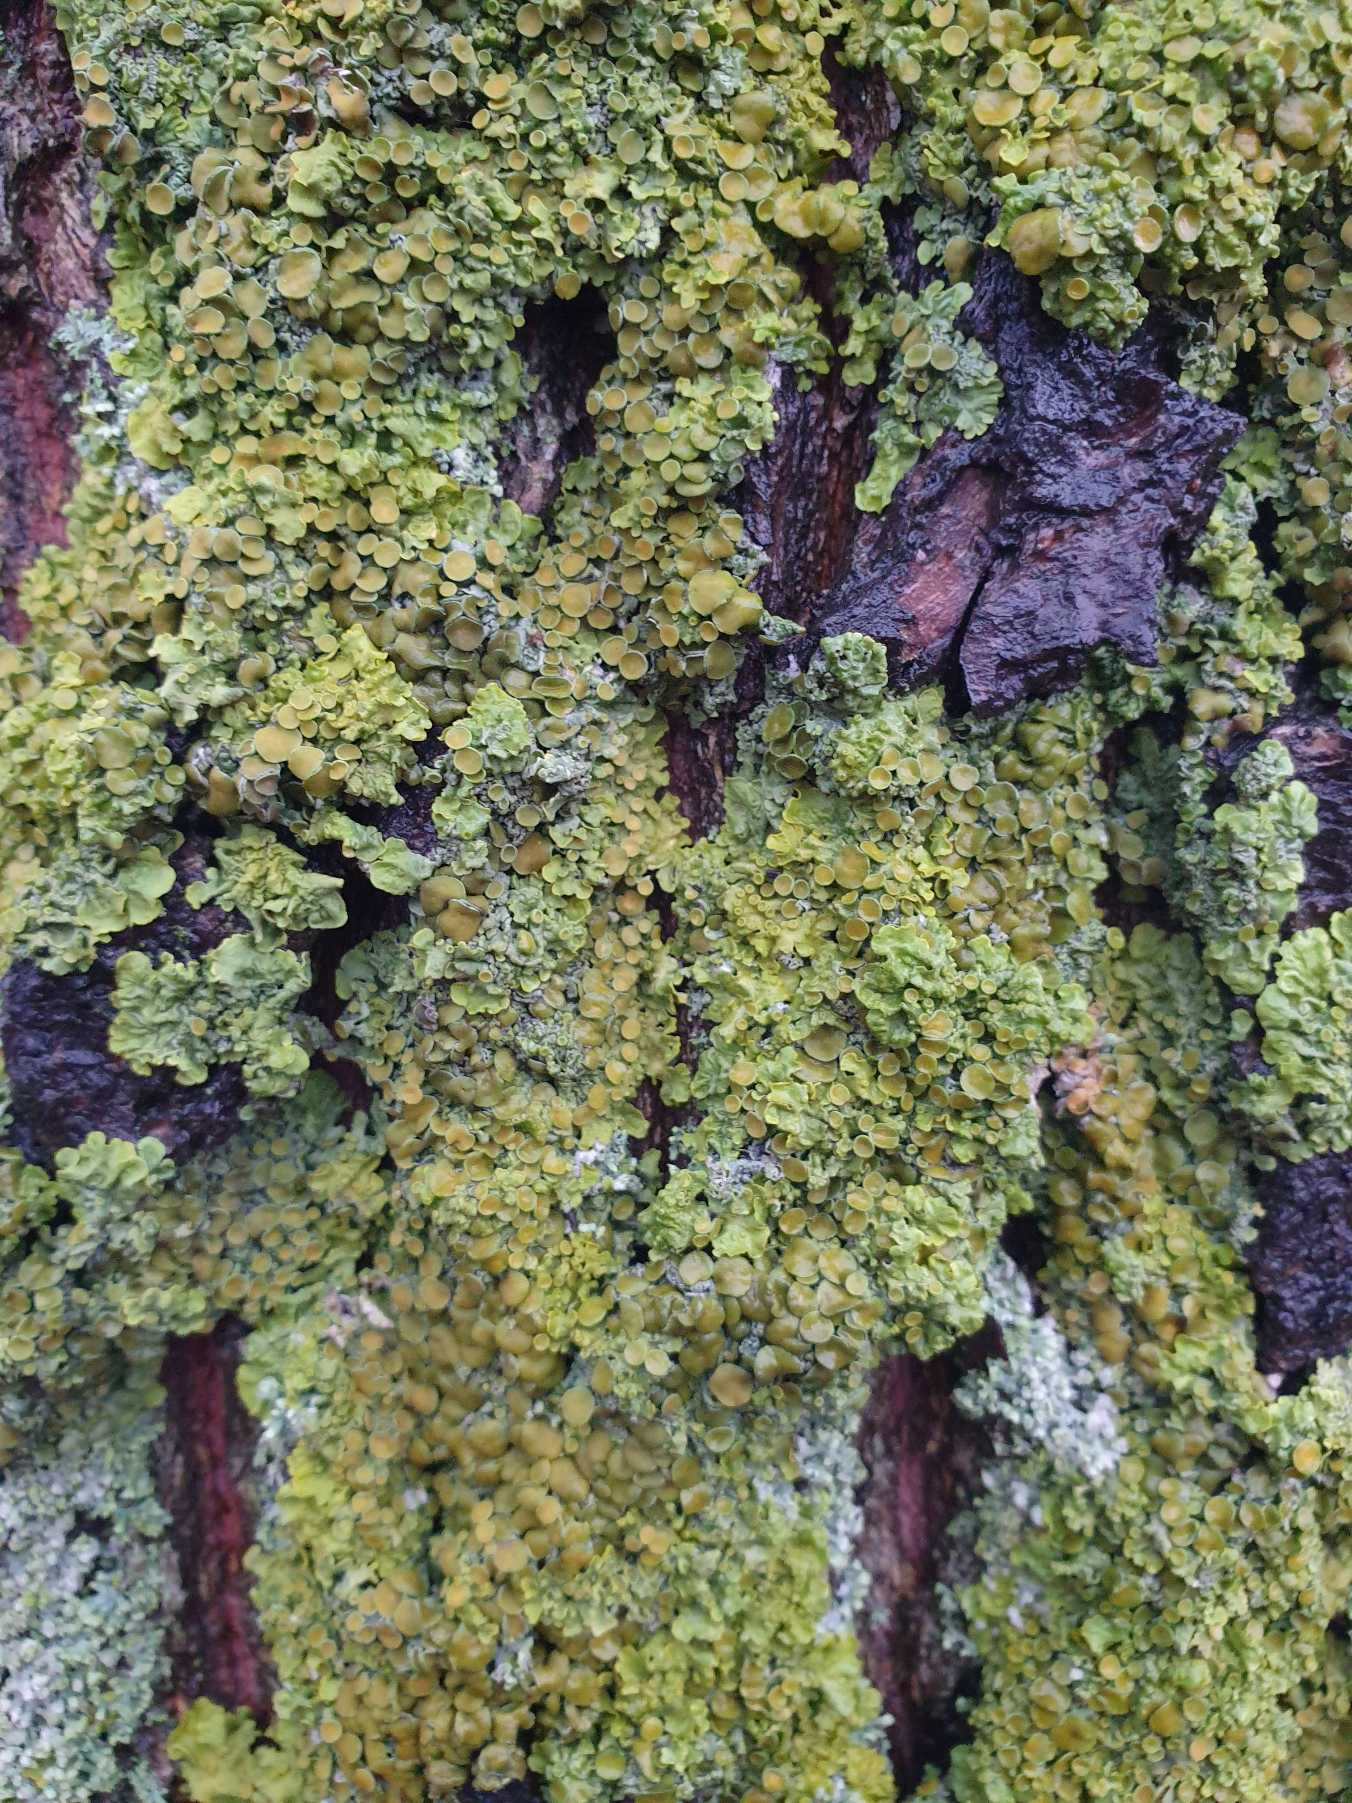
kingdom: Fungi
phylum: Ascomycota
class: Lecanoromycetes
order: Teloschistales
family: Teloschistaceae
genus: Xanthoria
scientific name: Xanthoria parietina
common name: Almindelig væggelav
